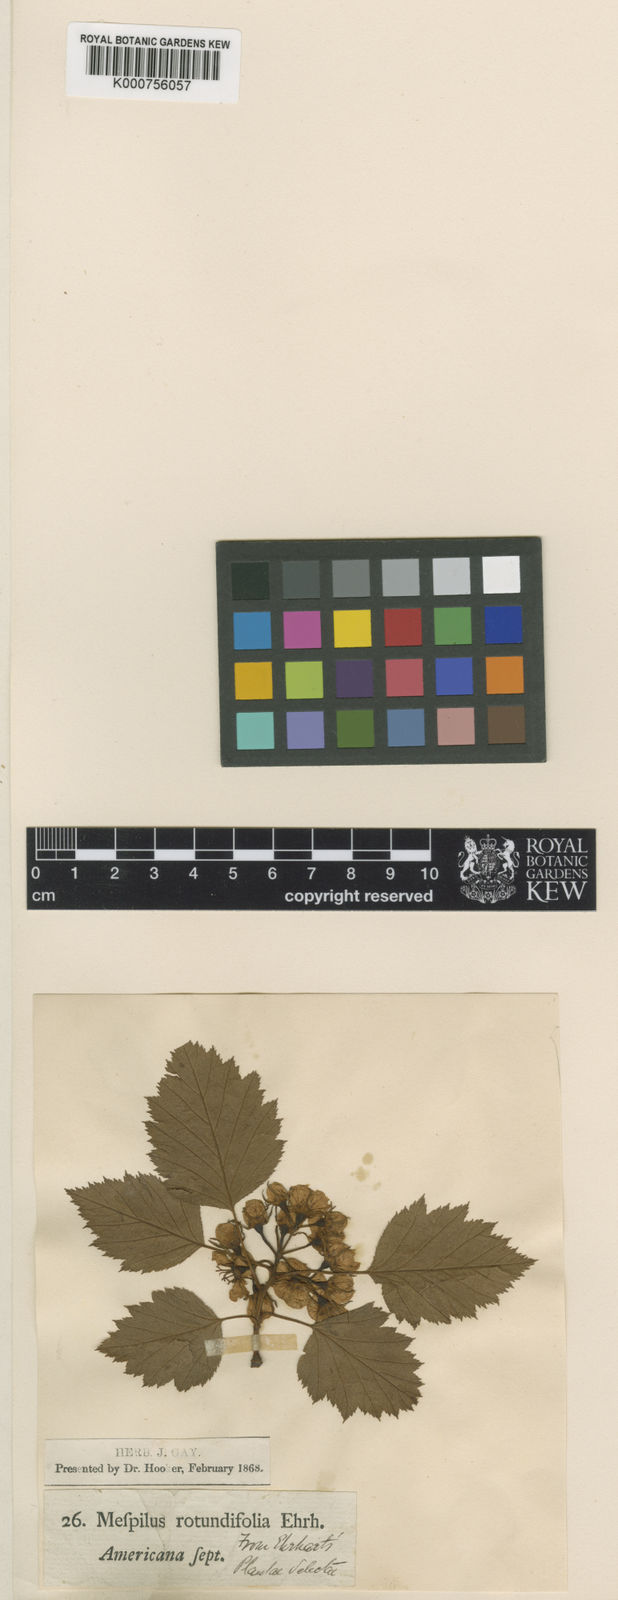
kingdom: Plantae
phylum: Tracheophyta
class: Magnoliopsida
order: Rosales
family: Rosaceae
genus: Crataegus
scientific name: Crataegus chrysocarpa
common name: Fire-berry hawthorn
